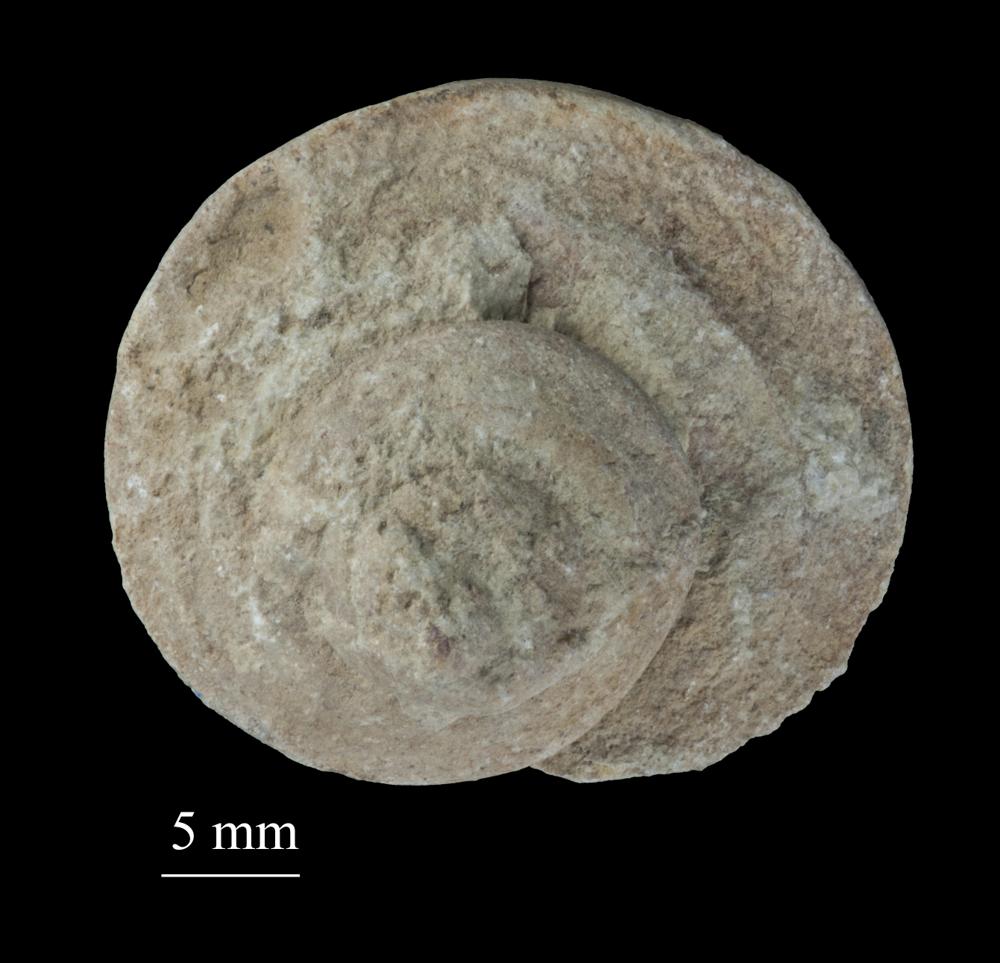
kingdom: Animalia
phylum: Mollusca
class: Gastropoda
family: Lophospiridae
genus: Ruedemannia
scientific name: Ruedemannia Worthenia borkholmiensis
